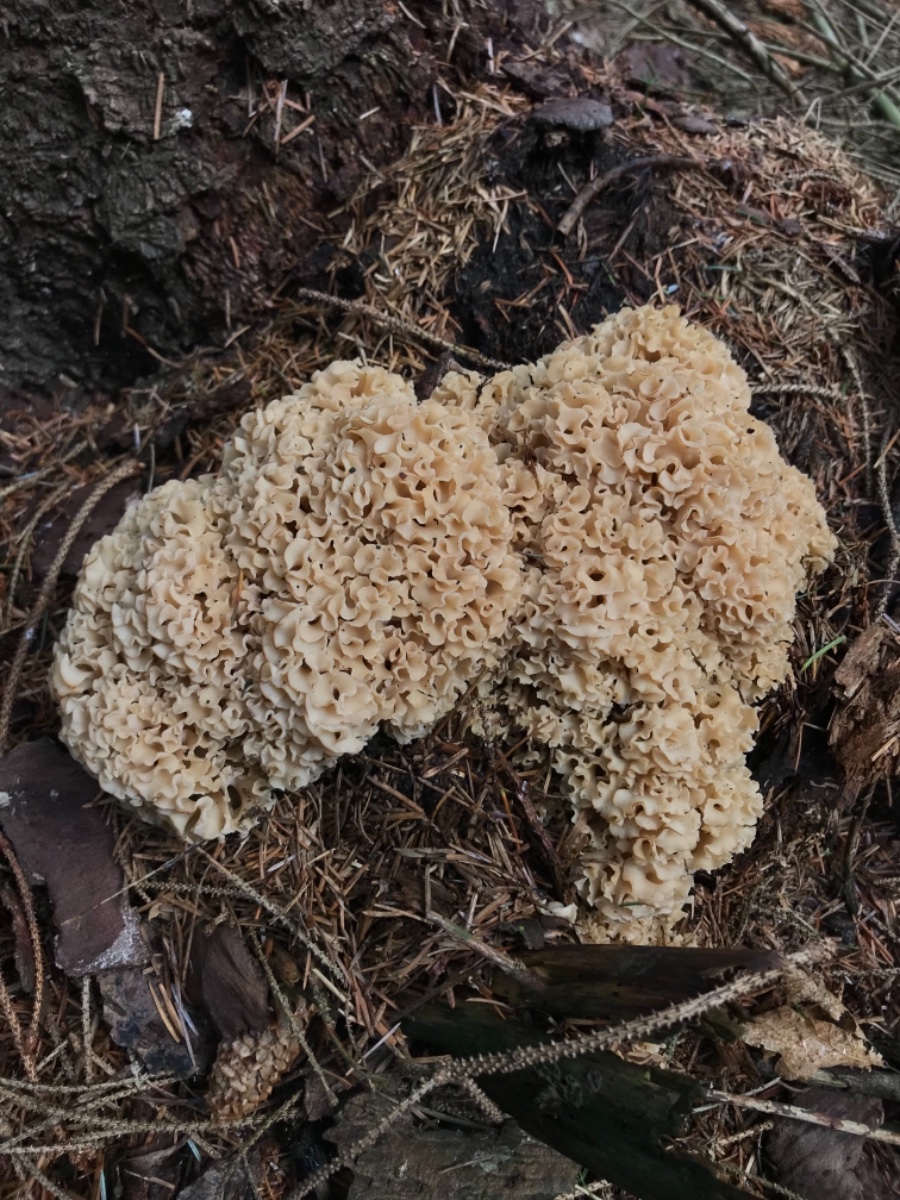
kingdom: Fungi
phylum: Basidiomycota
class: Agaricomycetes
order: Polyporales
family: Sparassidaceae
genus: Sparassis
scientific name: Sparassis crispa
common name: kruset blomkålssvamp
